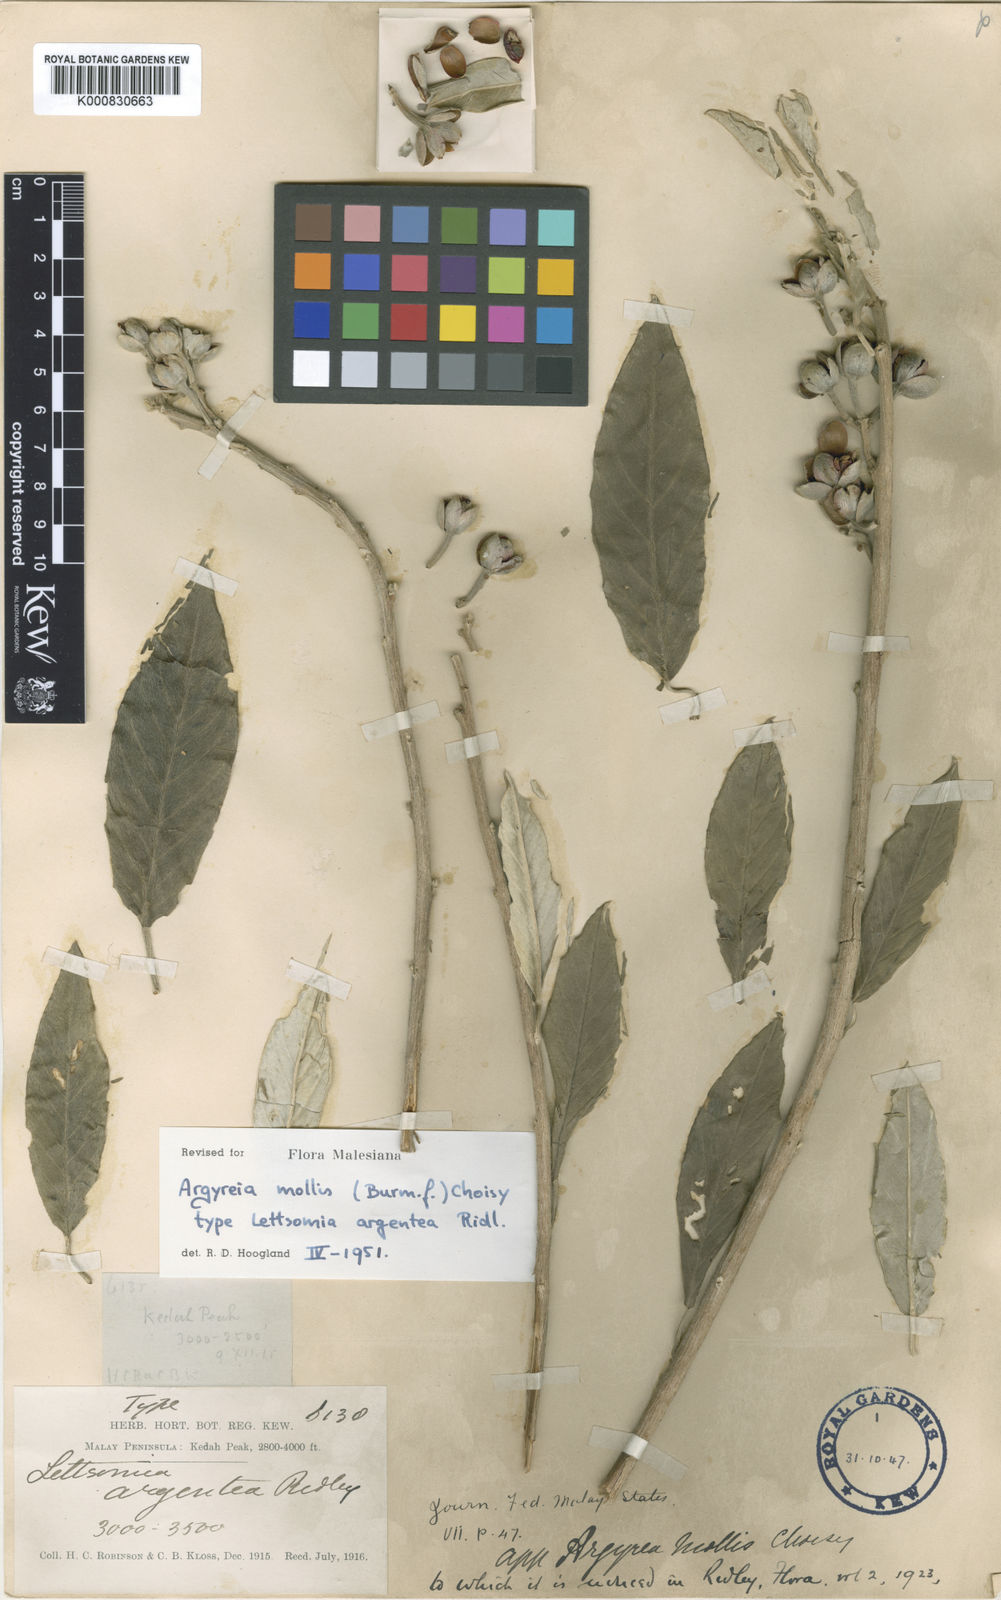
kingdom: Plantae
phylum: Tracheophyta
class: Magnoliopsida
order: Solanales
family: Convolvulaceae
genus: Argyreia
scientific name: Argyreia mollis
